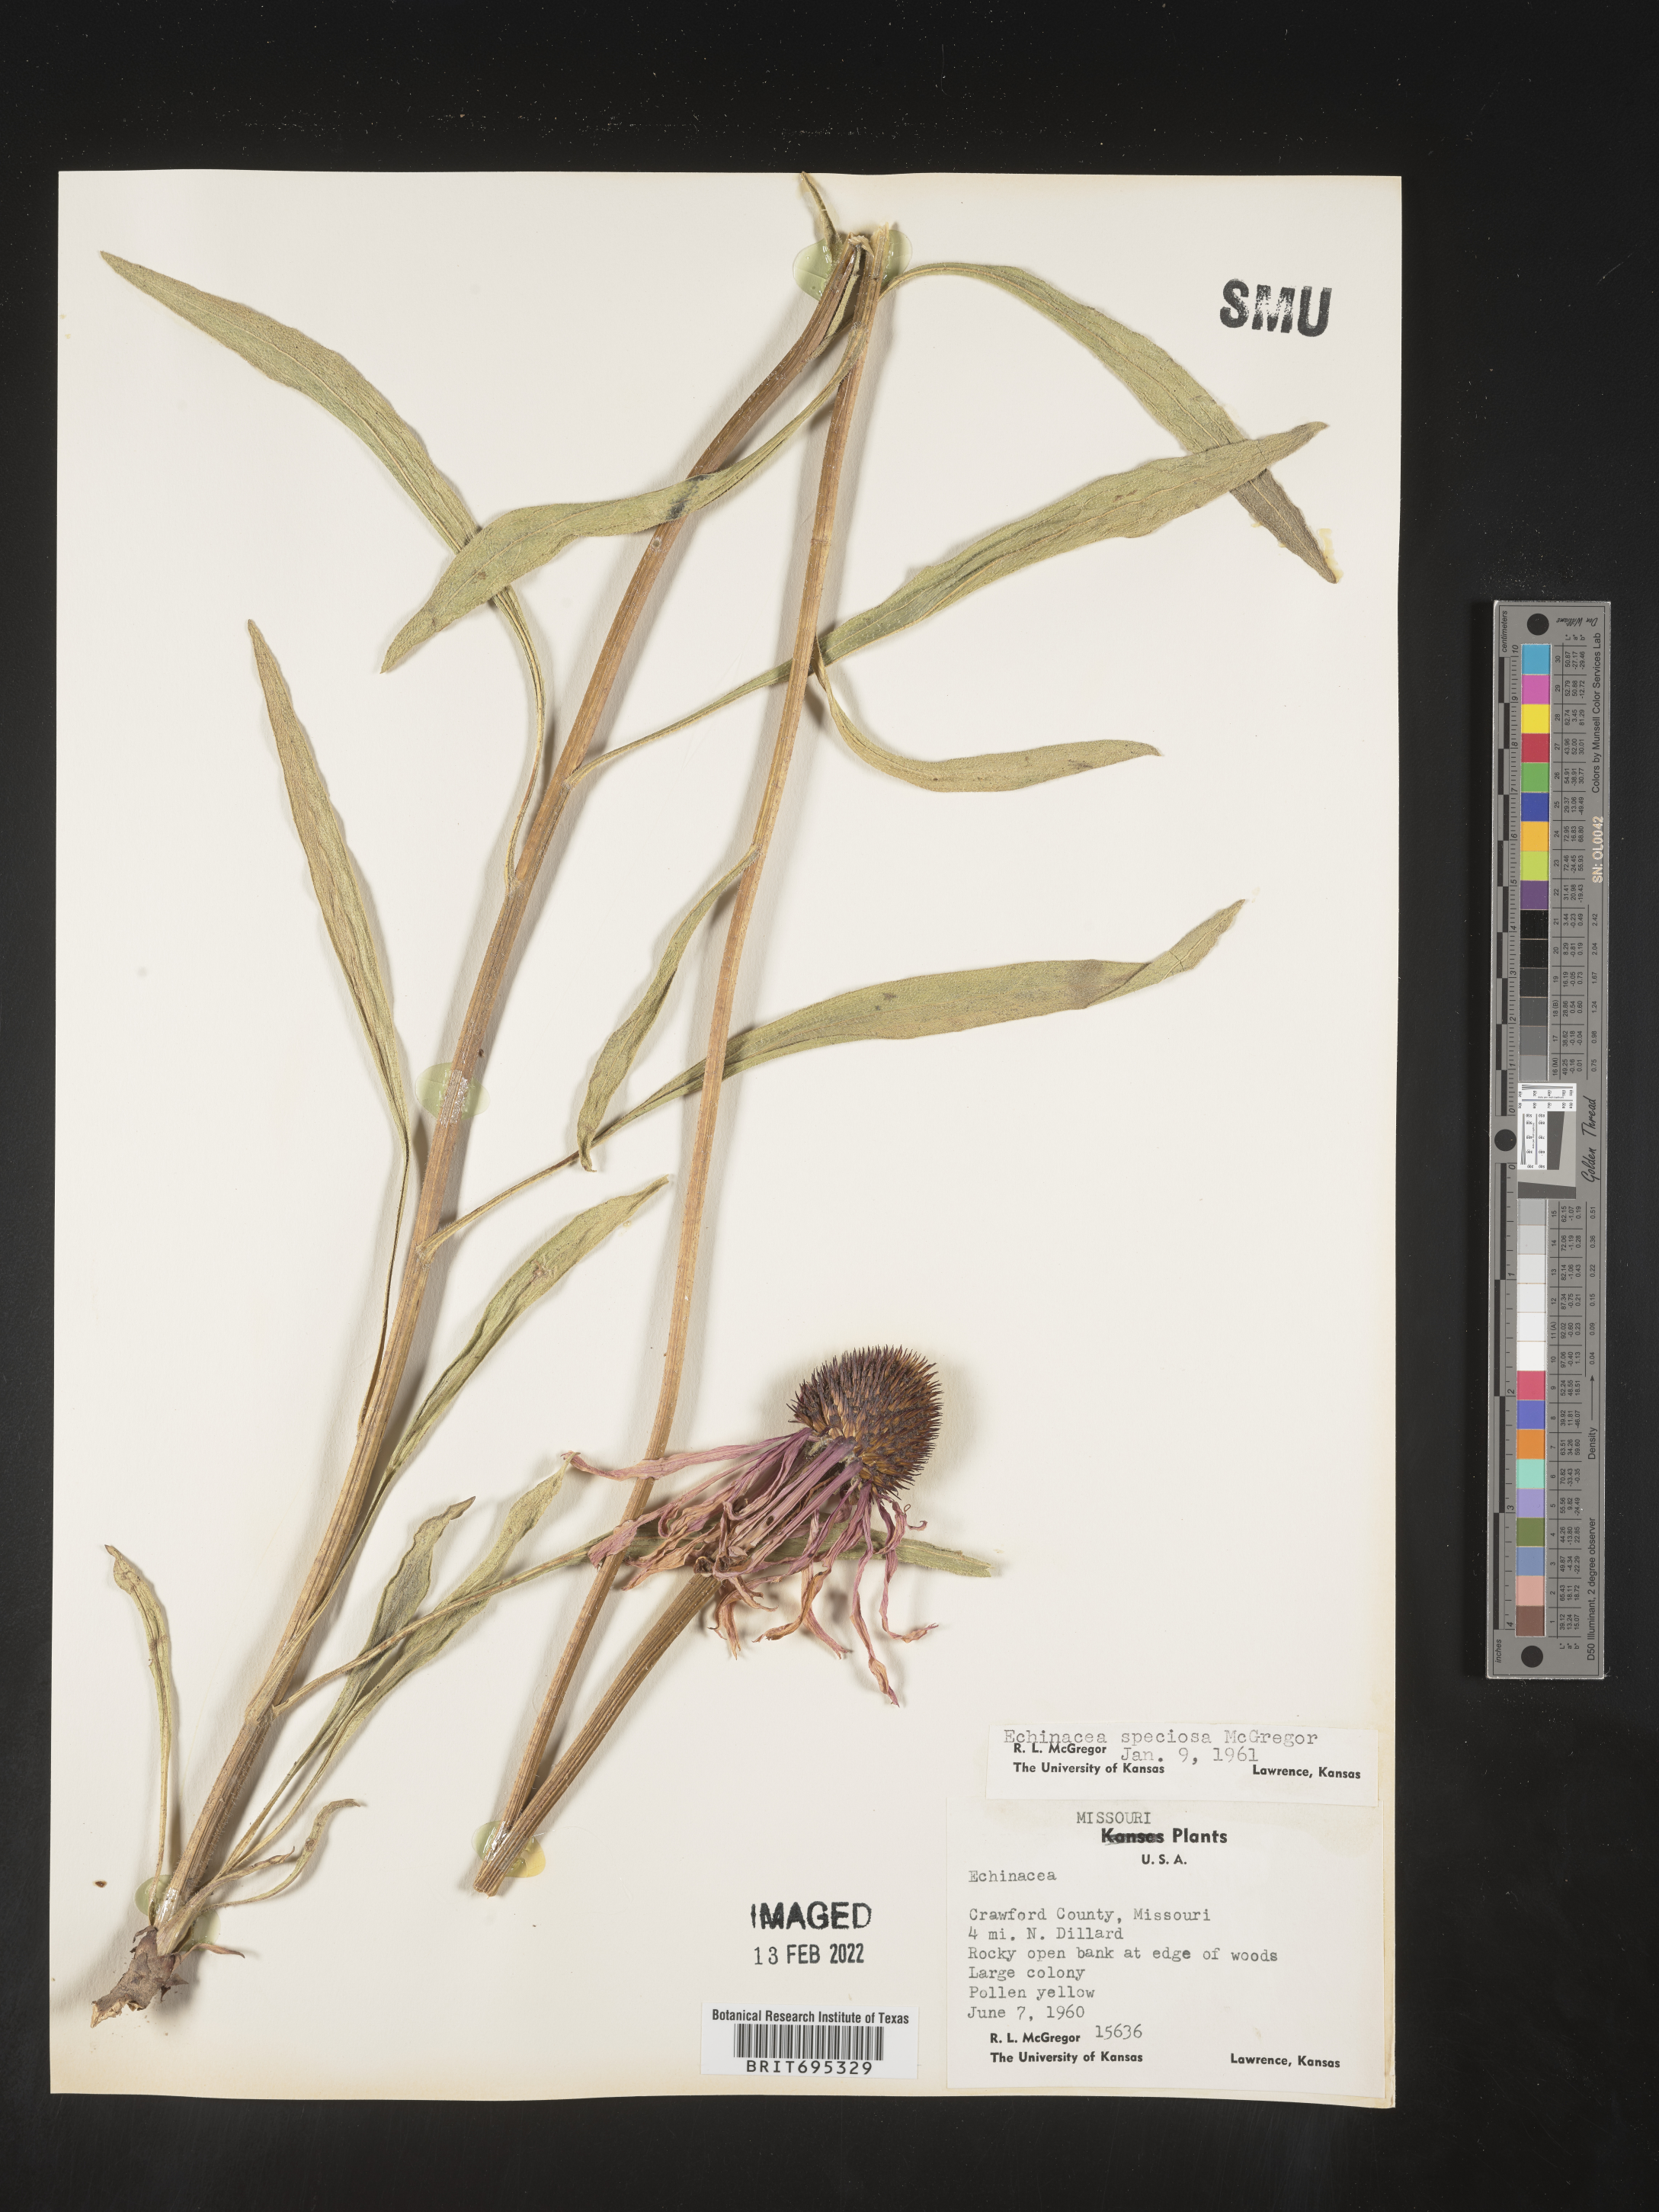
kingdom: Plantae
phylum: Tracheophyta
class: Magnoliopsida
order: Asterales
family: Asteraceae
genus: Echinacea
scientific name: Echinacea simulata
